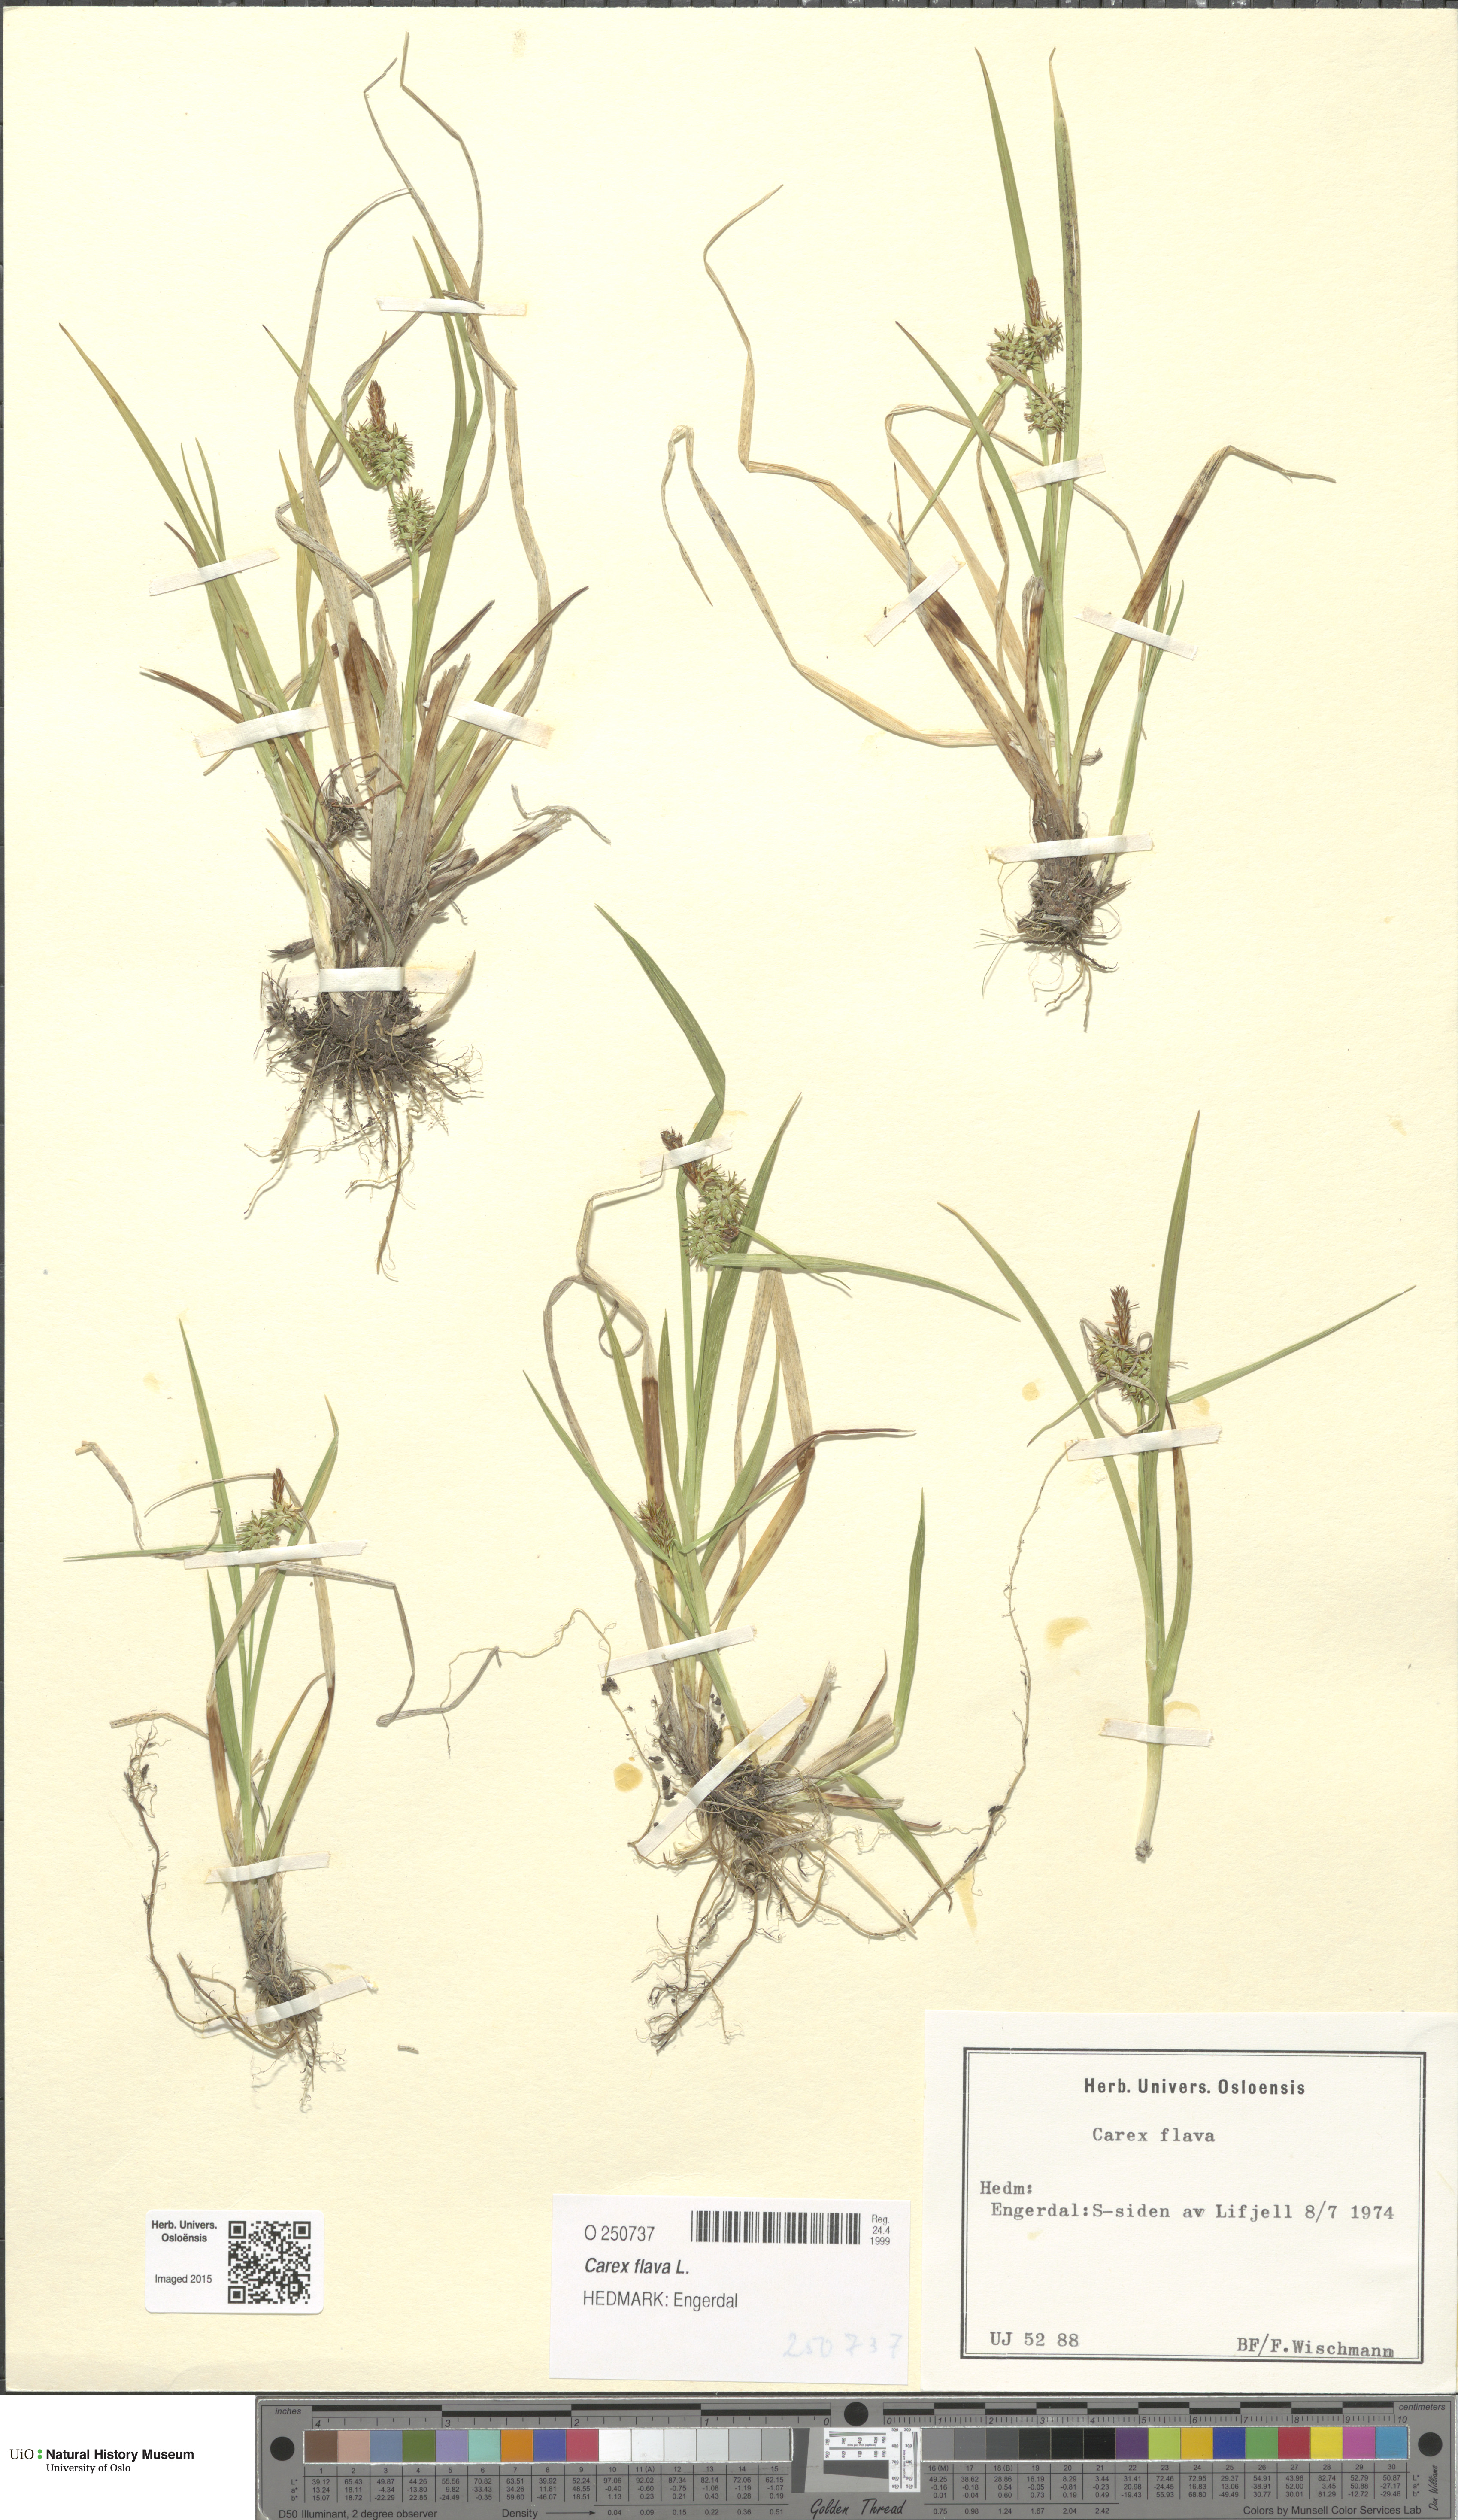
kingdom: Plantae
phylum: Tracheophyta
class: Liliopsida
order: Poales
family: Cyperaceae
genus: Carex
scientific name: Carex flava
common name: Large yellow-sedge
